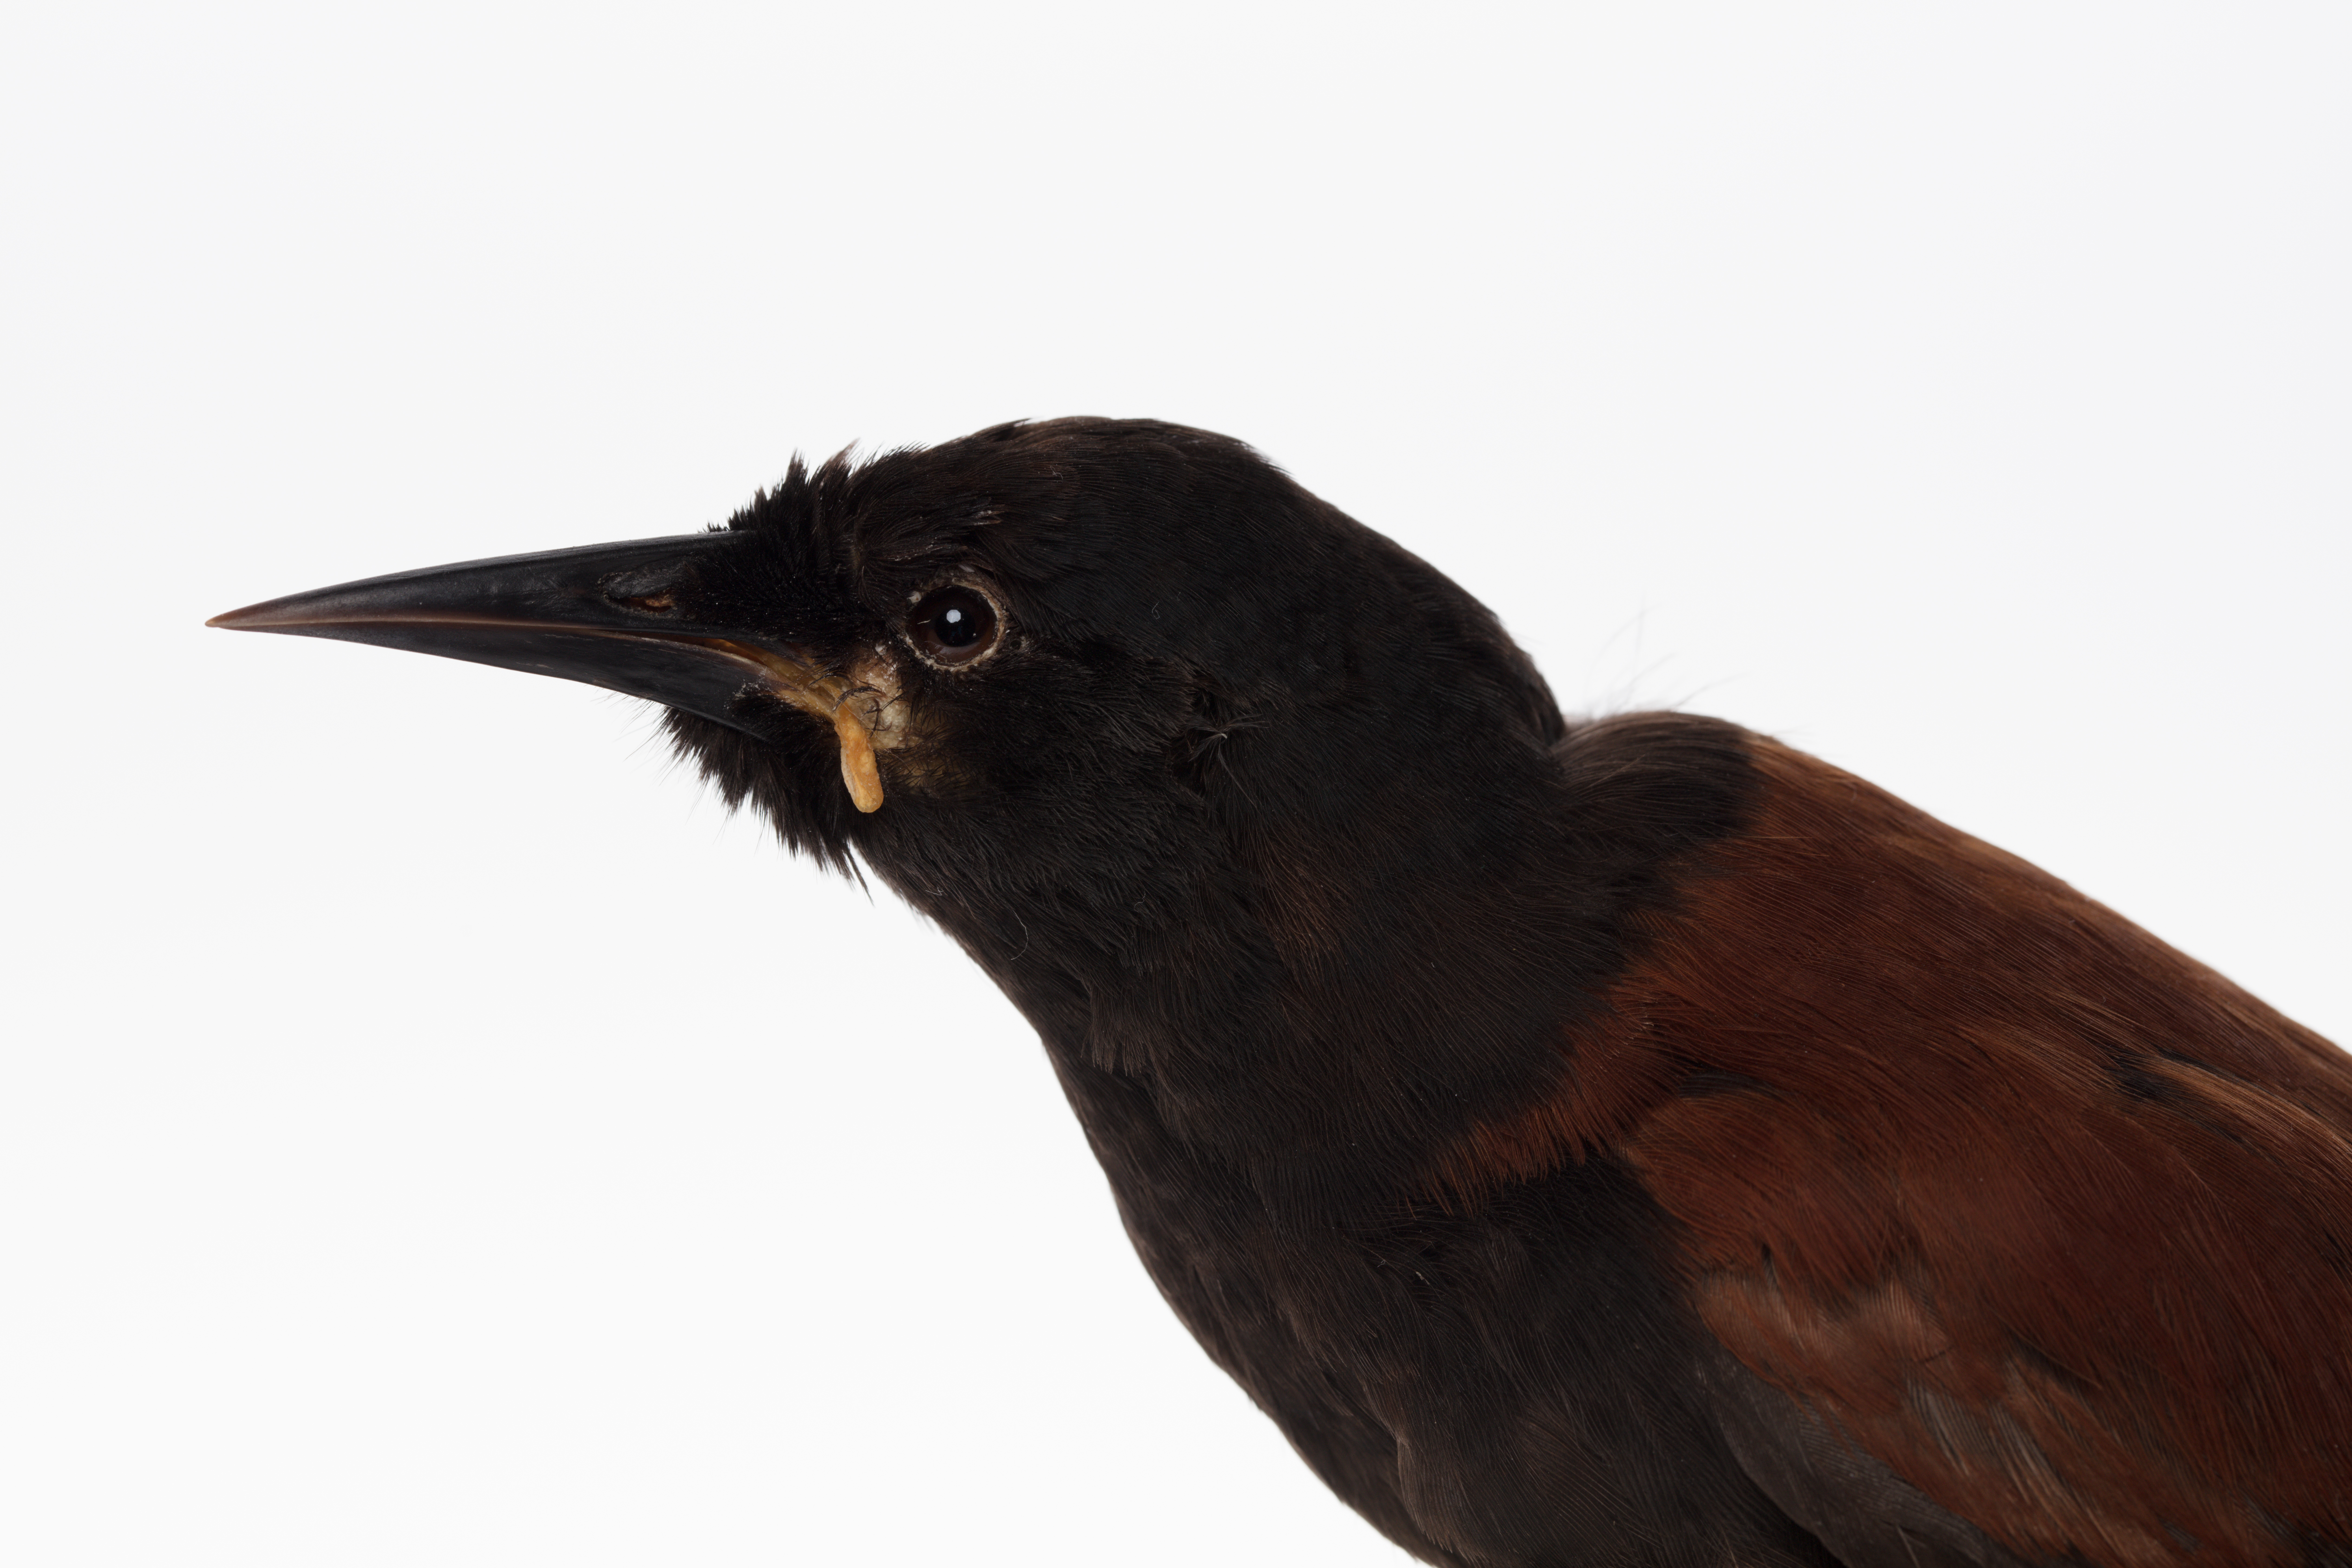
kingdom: Animalia
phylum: Chordata
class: Aves
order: Passeriformes
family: Callaeatidae
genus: Philesturnus
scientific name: Philesturnus carunculatus
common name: South island saddleback
